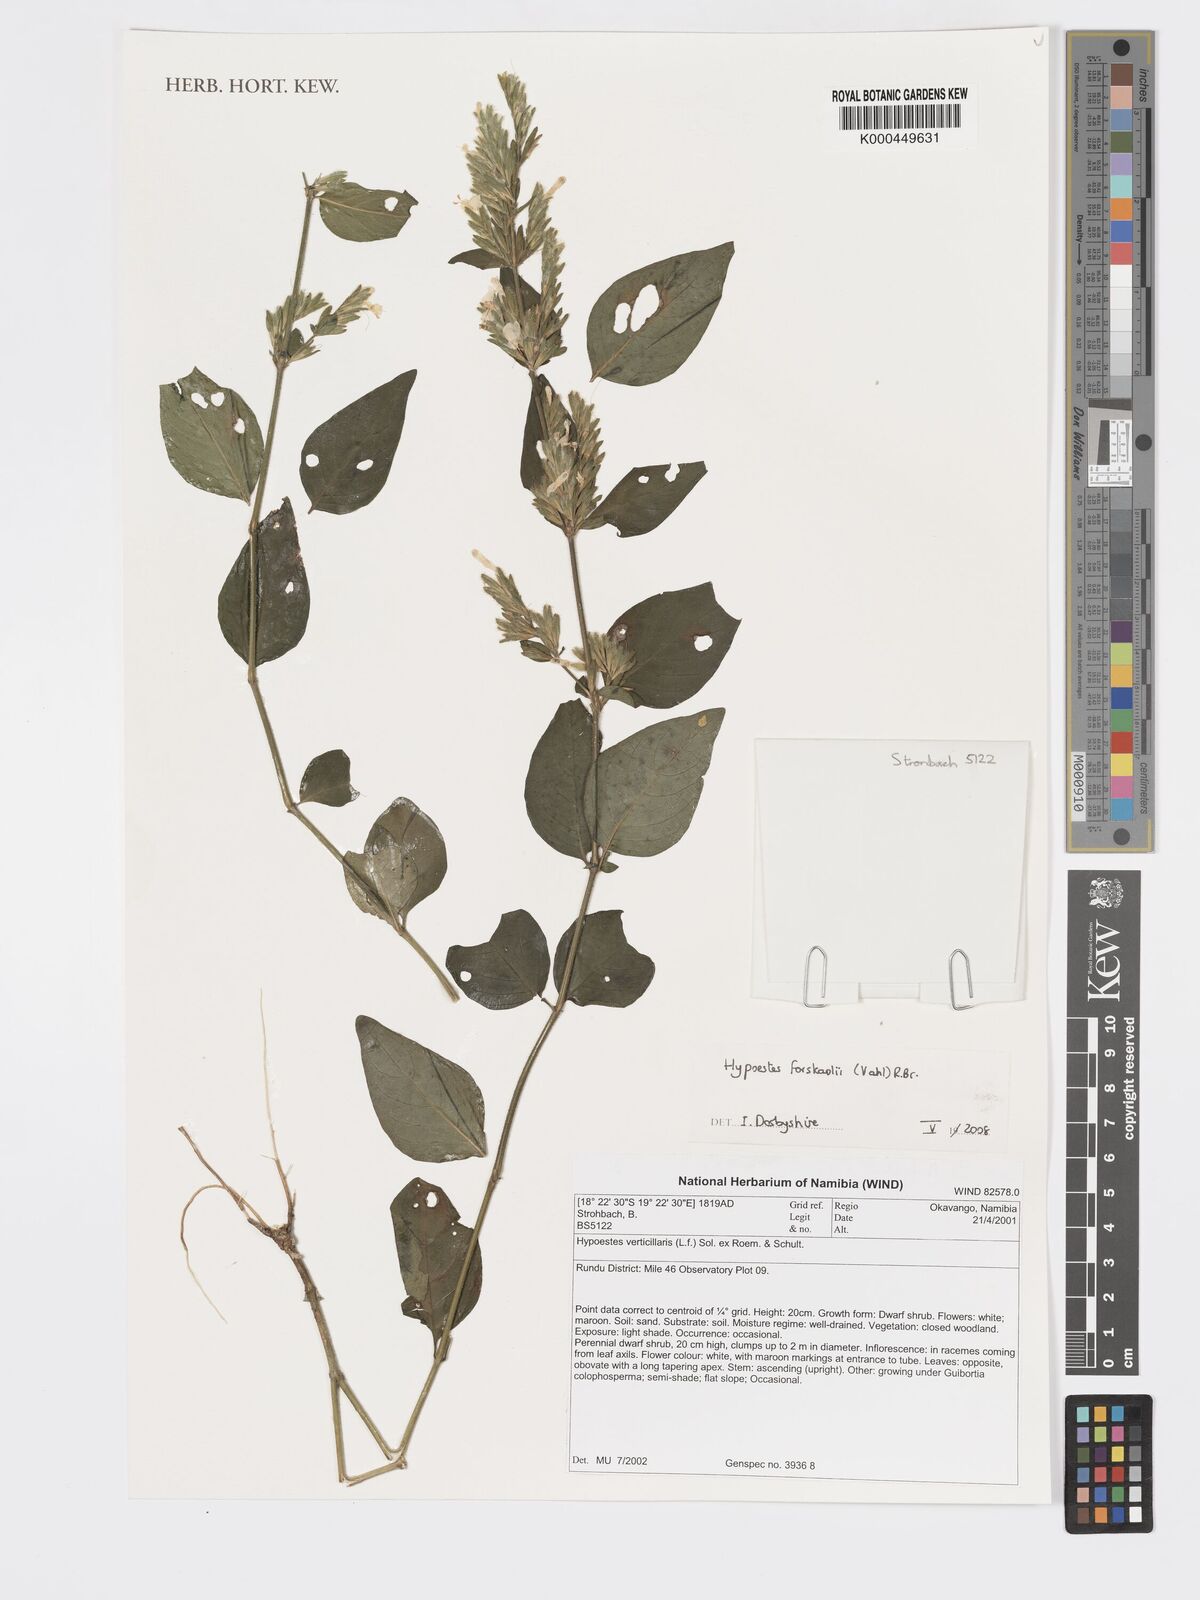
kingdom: Plantae
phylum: Tracheophyta
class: Magnoliopsida
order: Lamiales
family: Acanthaceae
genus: Hypoestes
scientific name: Hypoestes forskaolii
